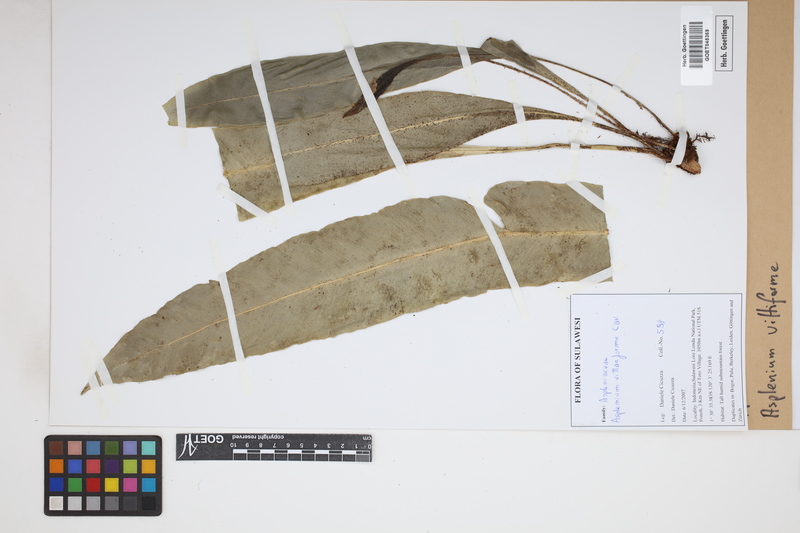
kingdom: Plantae
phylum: Tracheophyta
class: Polypodiopsida
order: Polypodiales
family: Aspleniaceae
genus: Asplenium
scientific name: Asplenium vittaeforme
